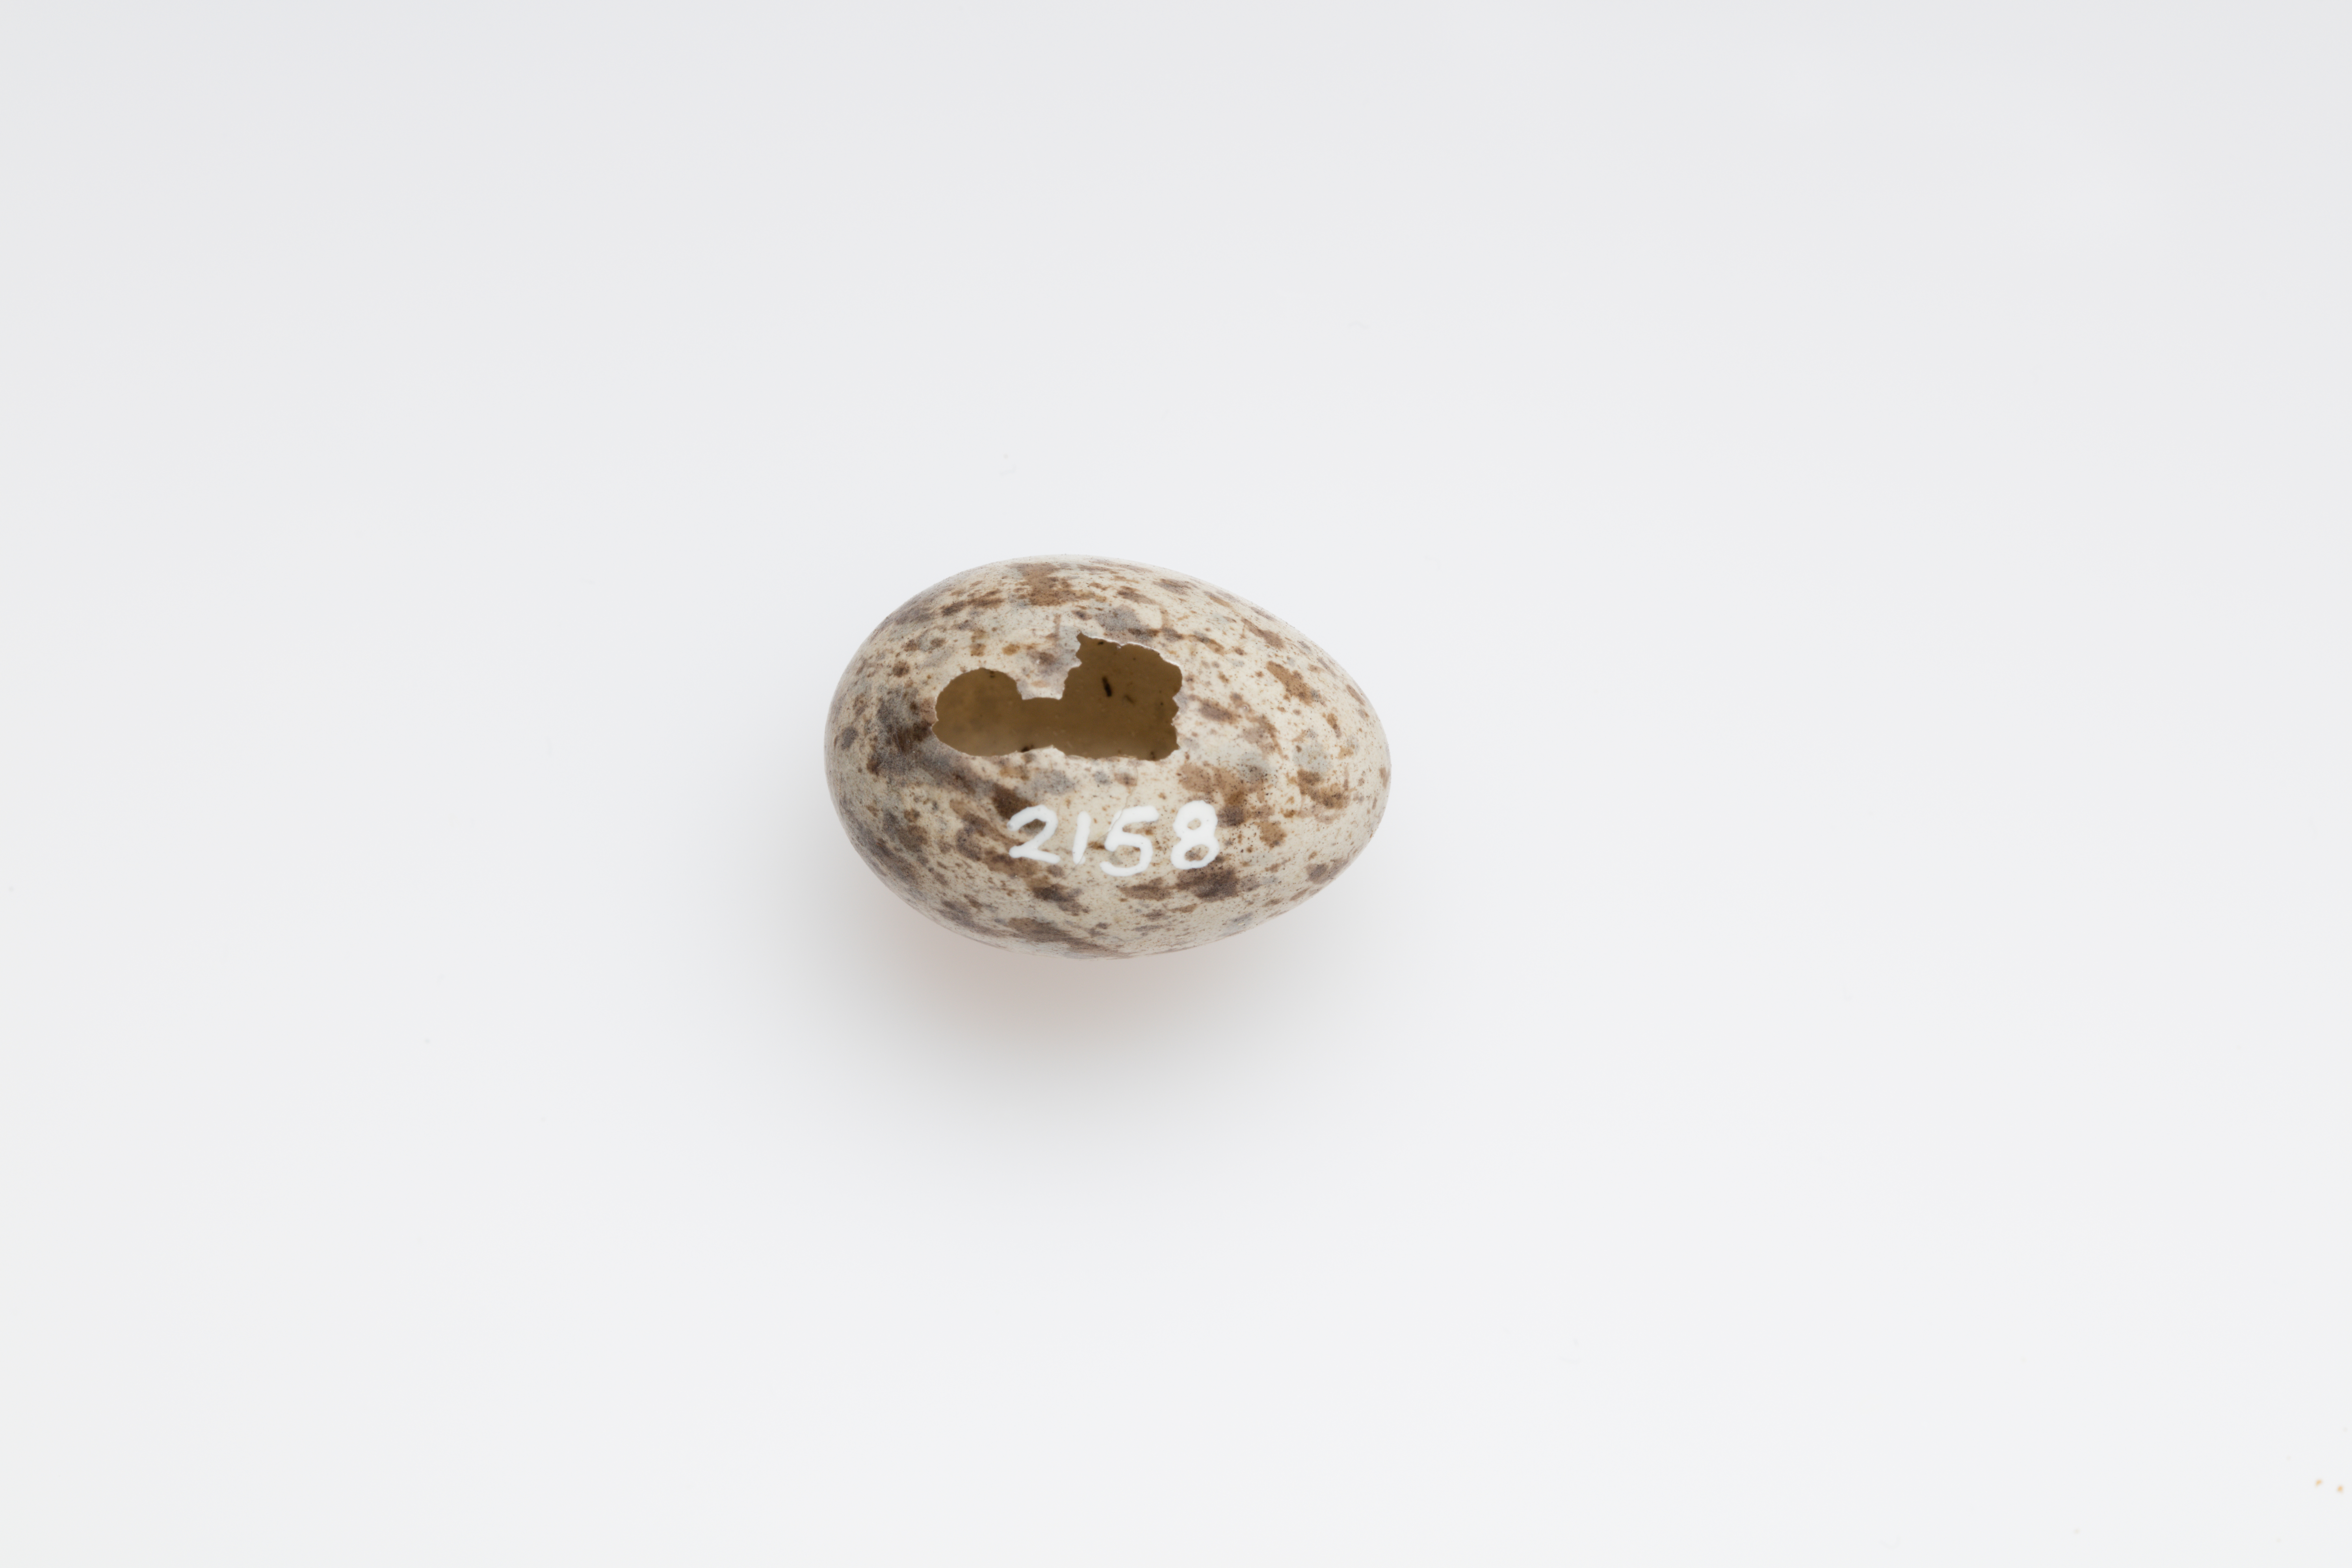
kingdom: Animalia
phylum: Chordata
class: Aves
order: Passeriformes
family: Motacillidae
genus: Anthus
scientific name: Anthus novaeseelandiae
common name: New zealand pipit
